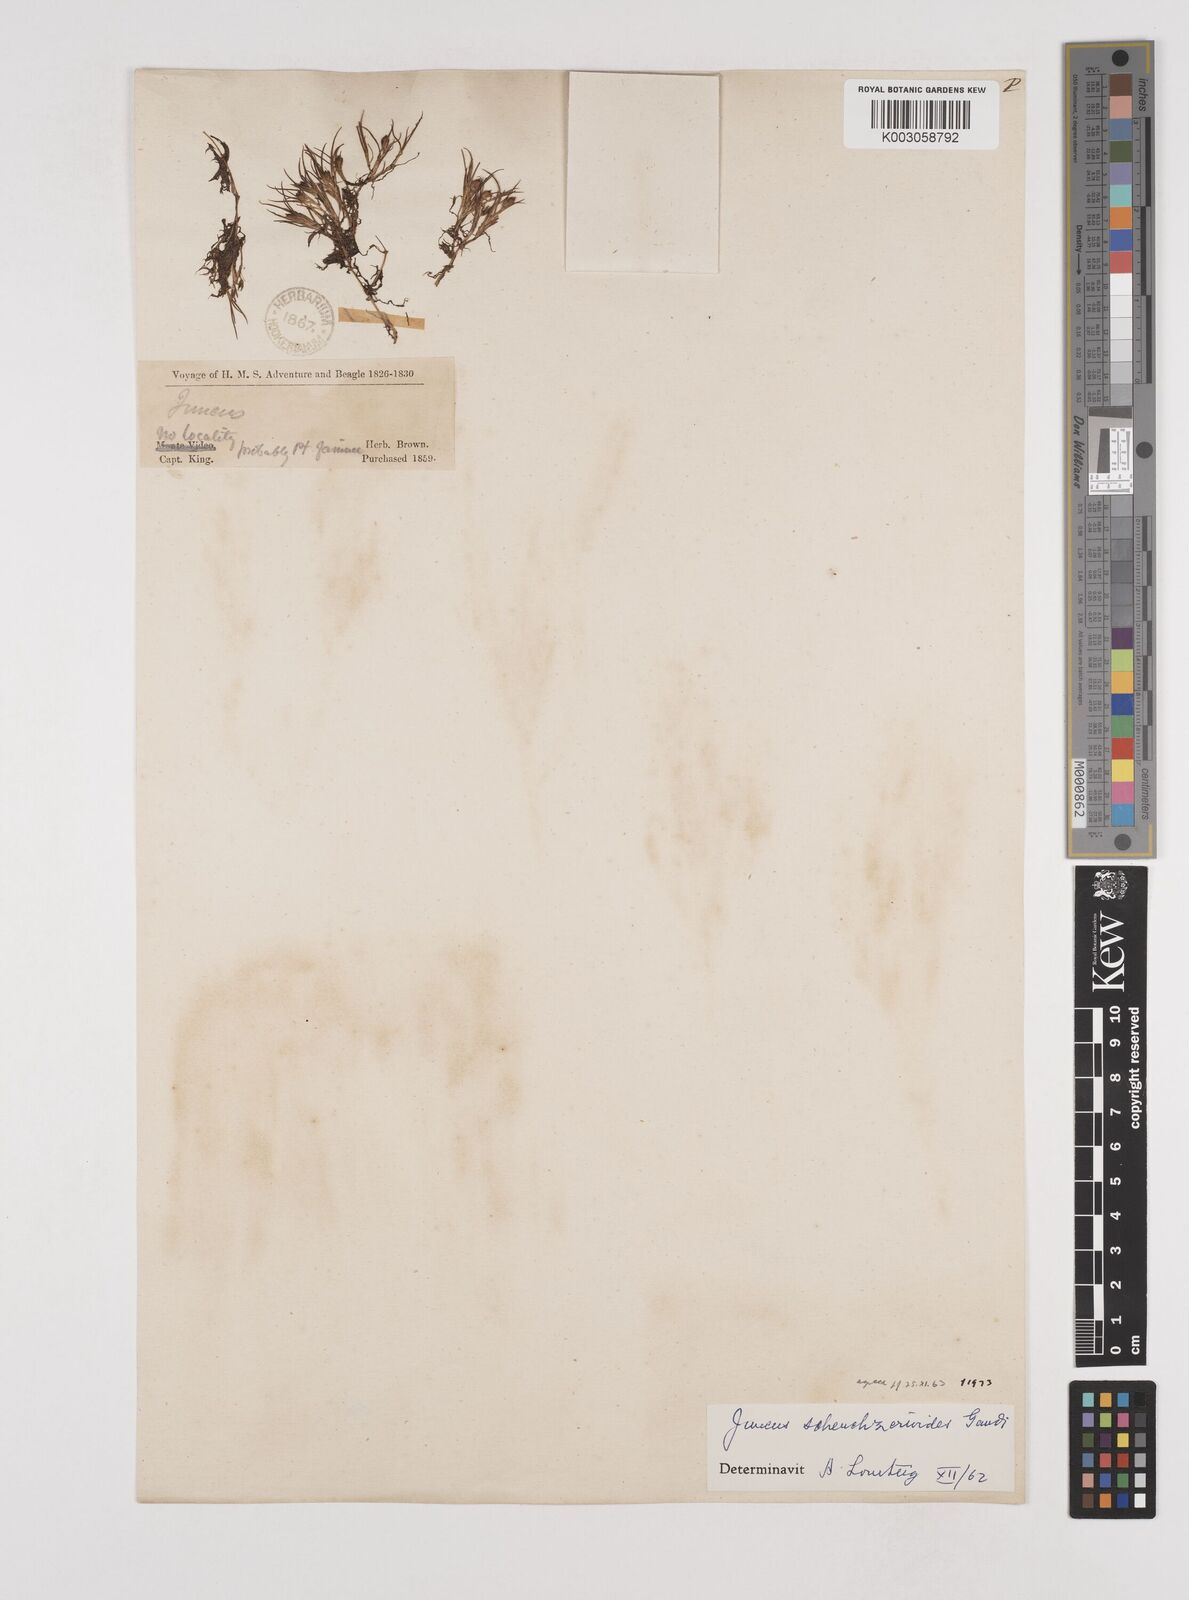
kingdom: Plantae
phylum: Tracheophyta
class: Liliopsida
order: Poales
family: Juncaceae
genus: Juncus
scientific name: Juncus scheuchzerioides
